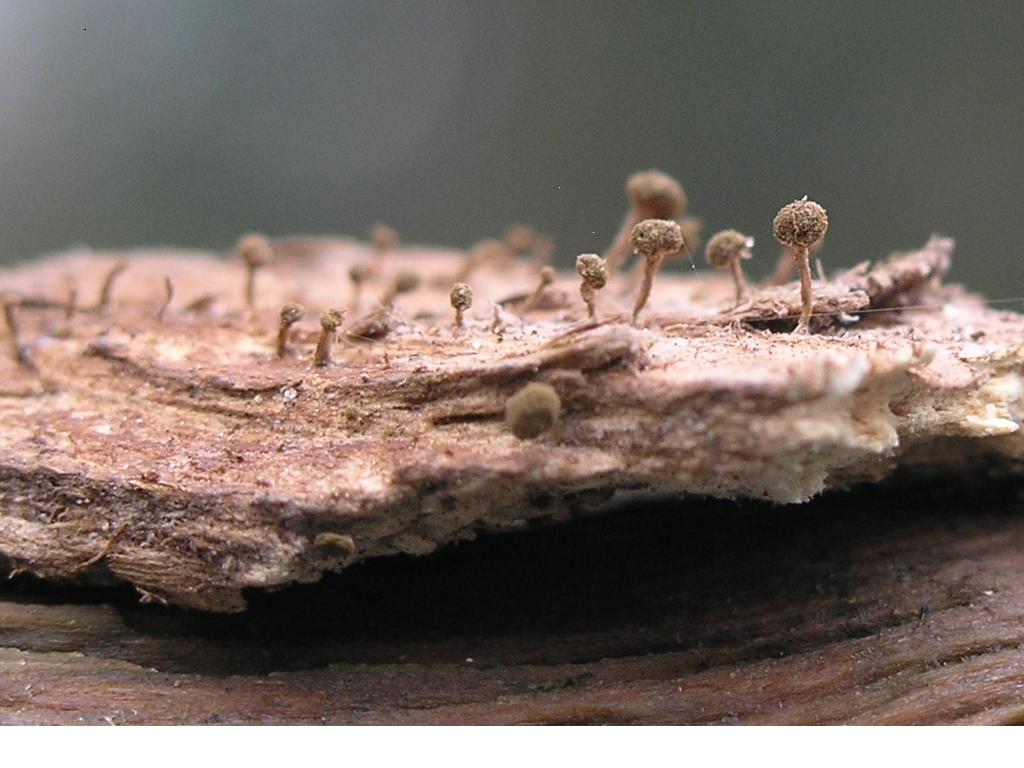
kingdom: Fungi
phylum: Basidiomycota
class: Atractiellomycetes
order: Atractiellales
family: Phleogenaceae
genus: Phleogena
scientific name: Phleogena faginea
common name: pudderkølle
